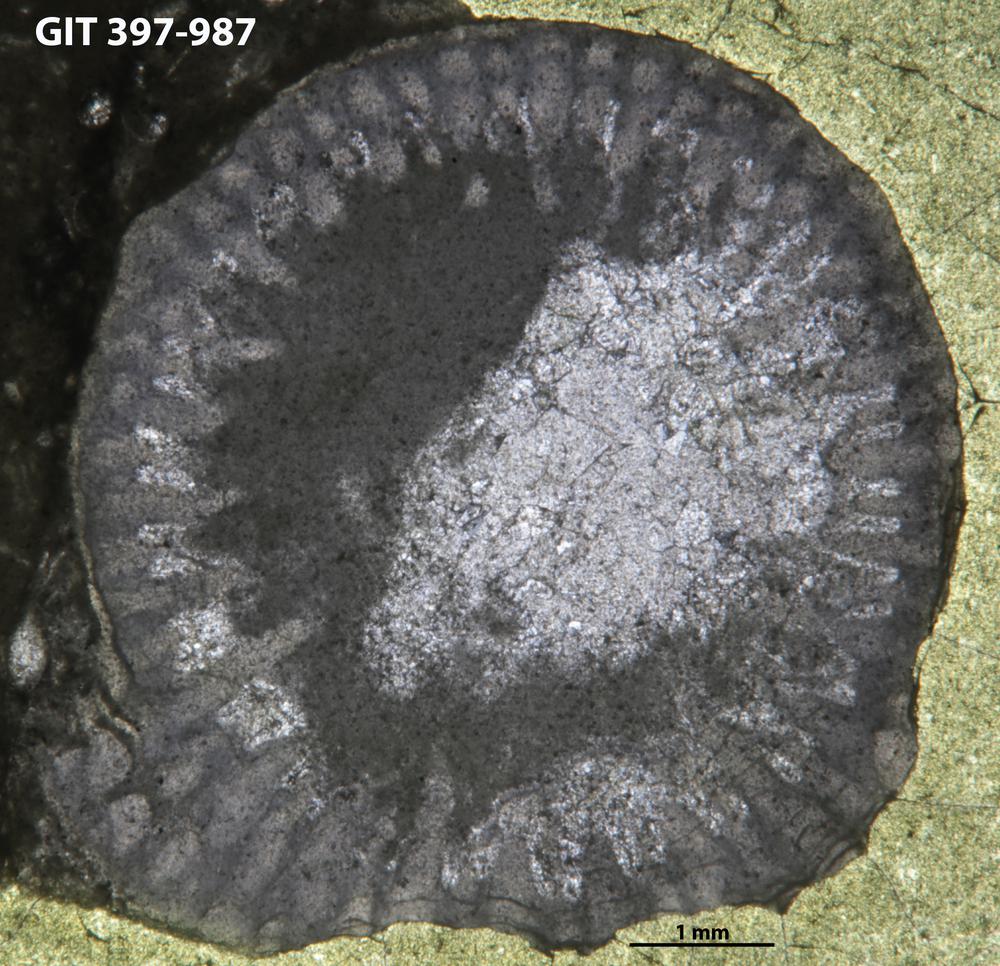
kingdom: Animalia
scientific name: Animalia
